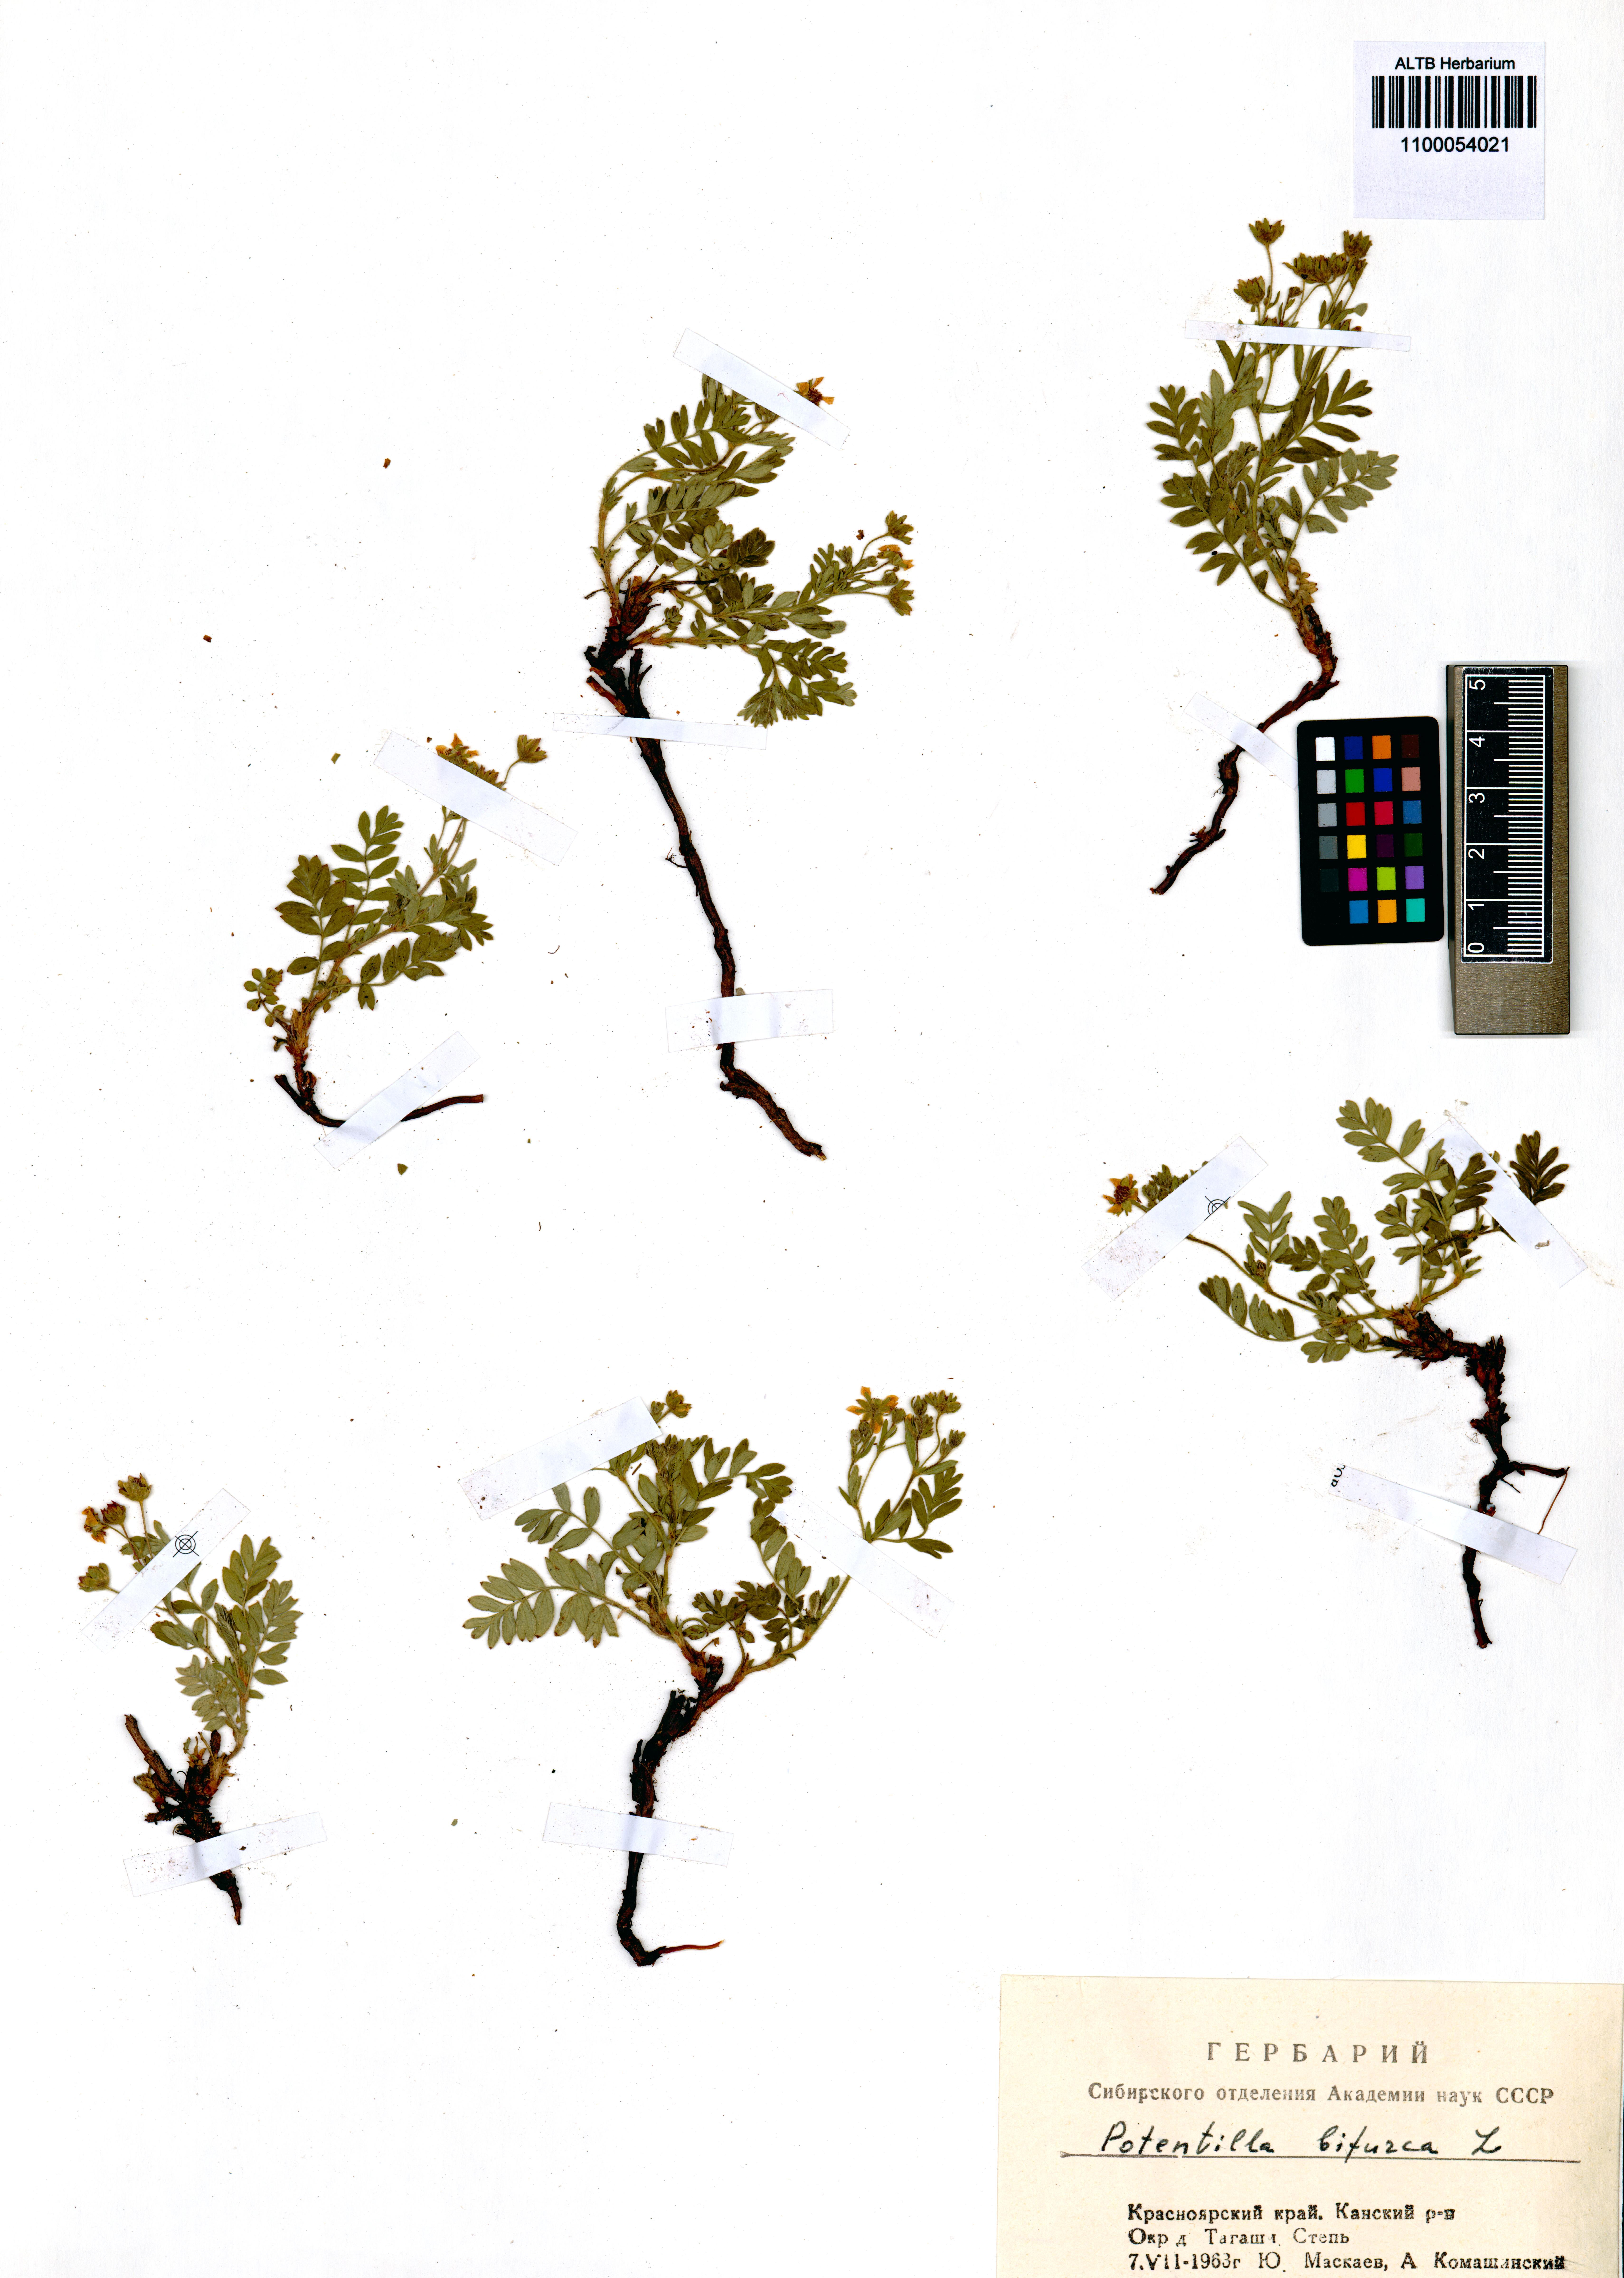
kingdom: Plantae
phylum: Tracheophyta
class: Magnoliopsida
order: Rosales
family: Rosaceae
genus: Sibbaldianthe
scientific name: Sibbaldianthe bifurca
